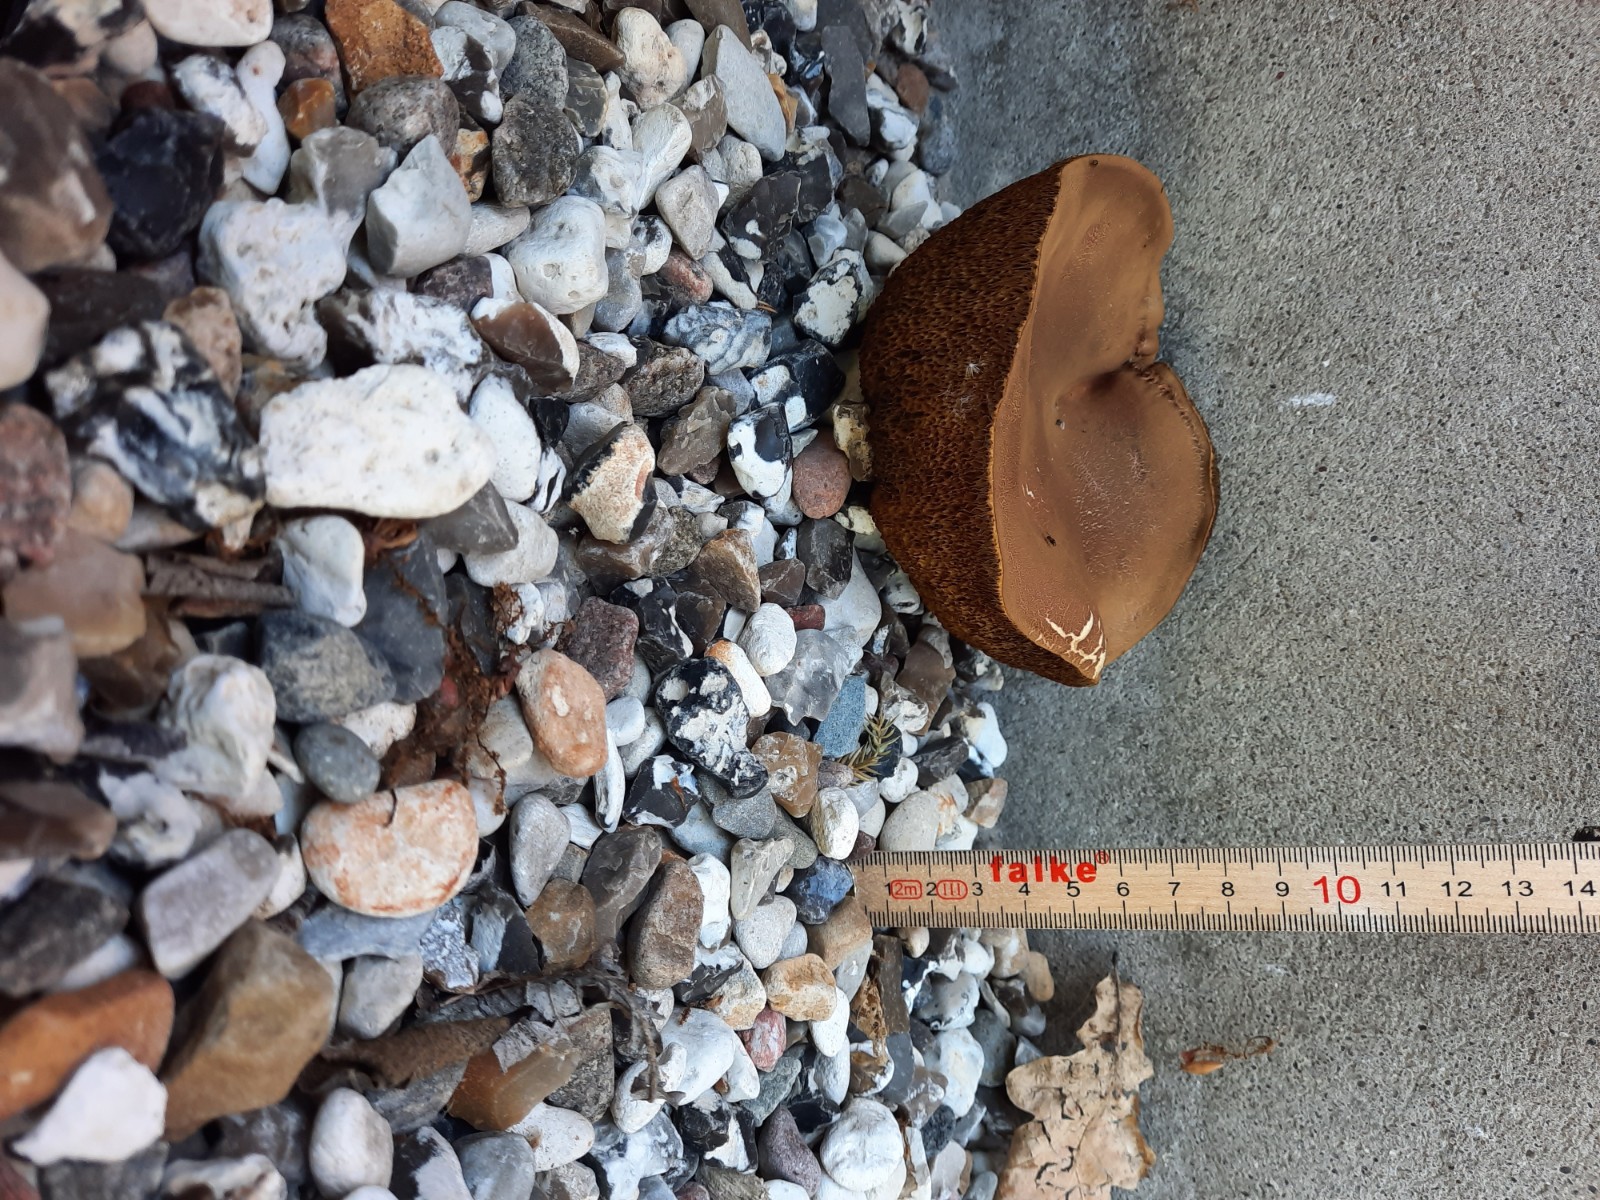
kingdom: Fungi
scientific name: Fungi
